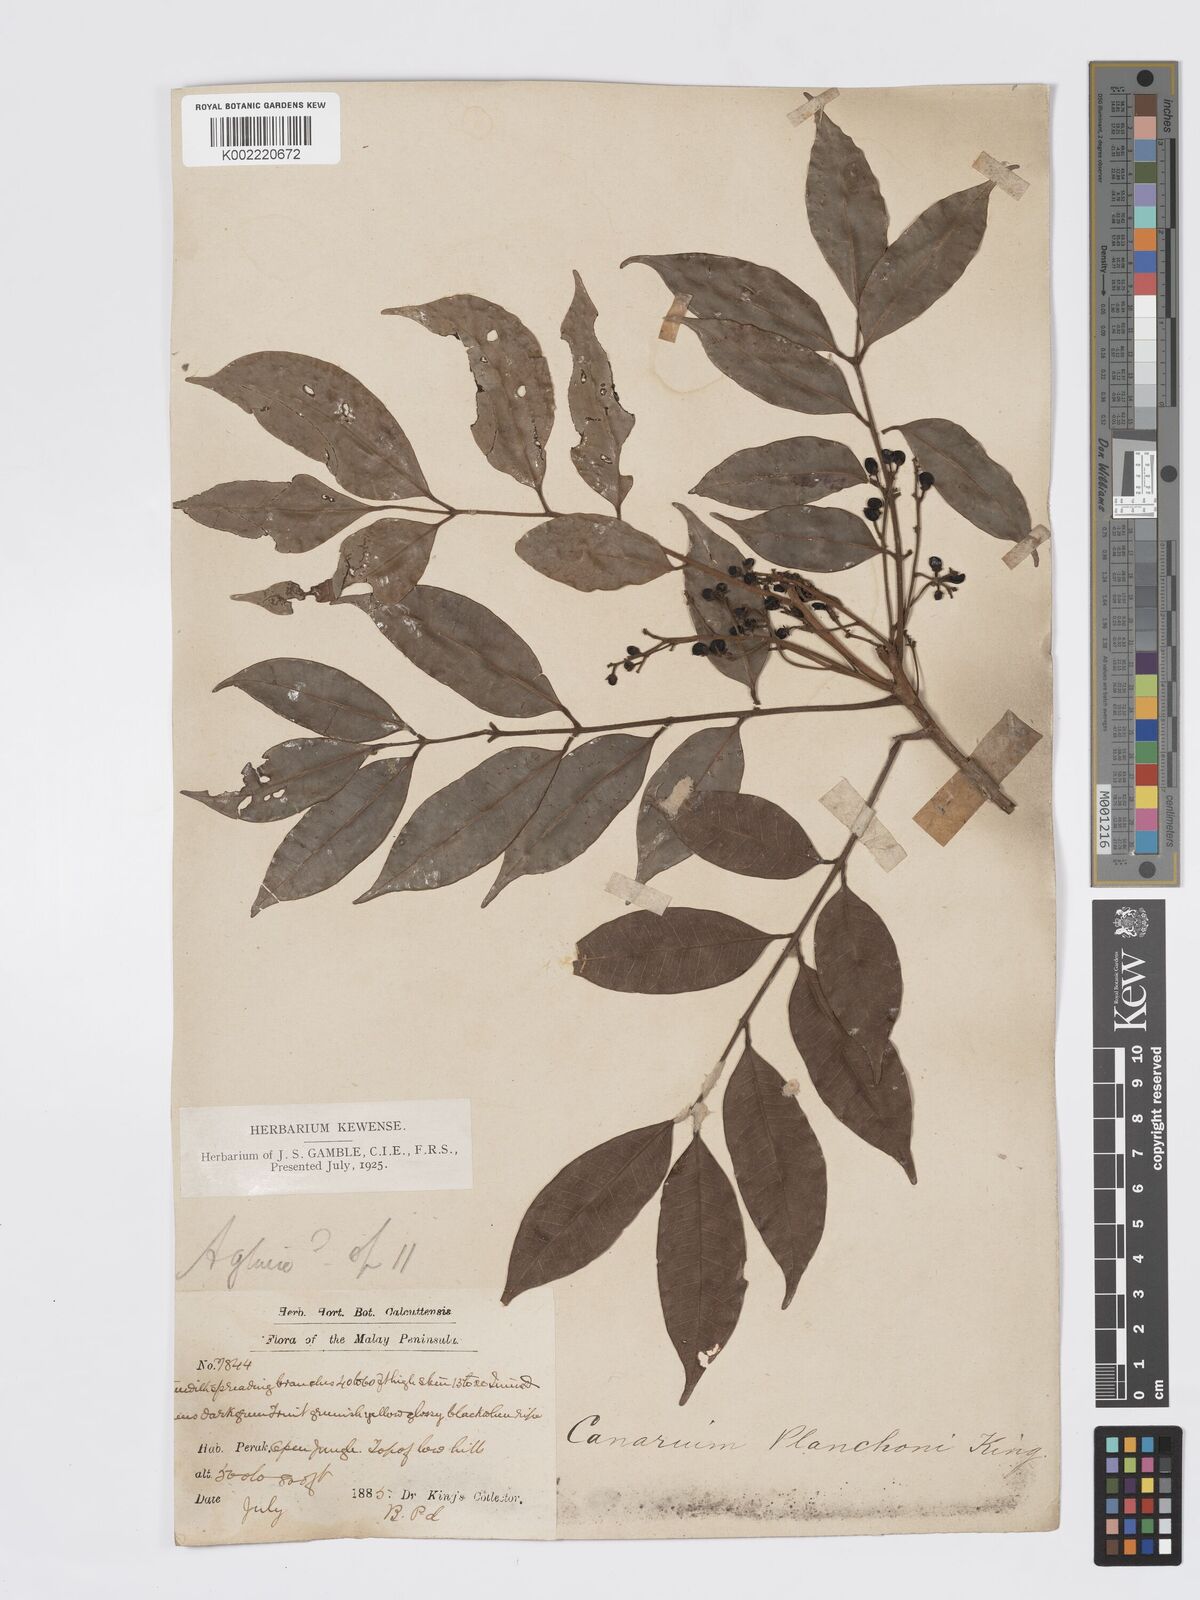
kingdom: Plantae
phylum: Tracheophyta
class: Magnoliopsida
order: Sapindales
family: Burseraceae
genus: Santiria
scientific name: Santiria rubiginosa
